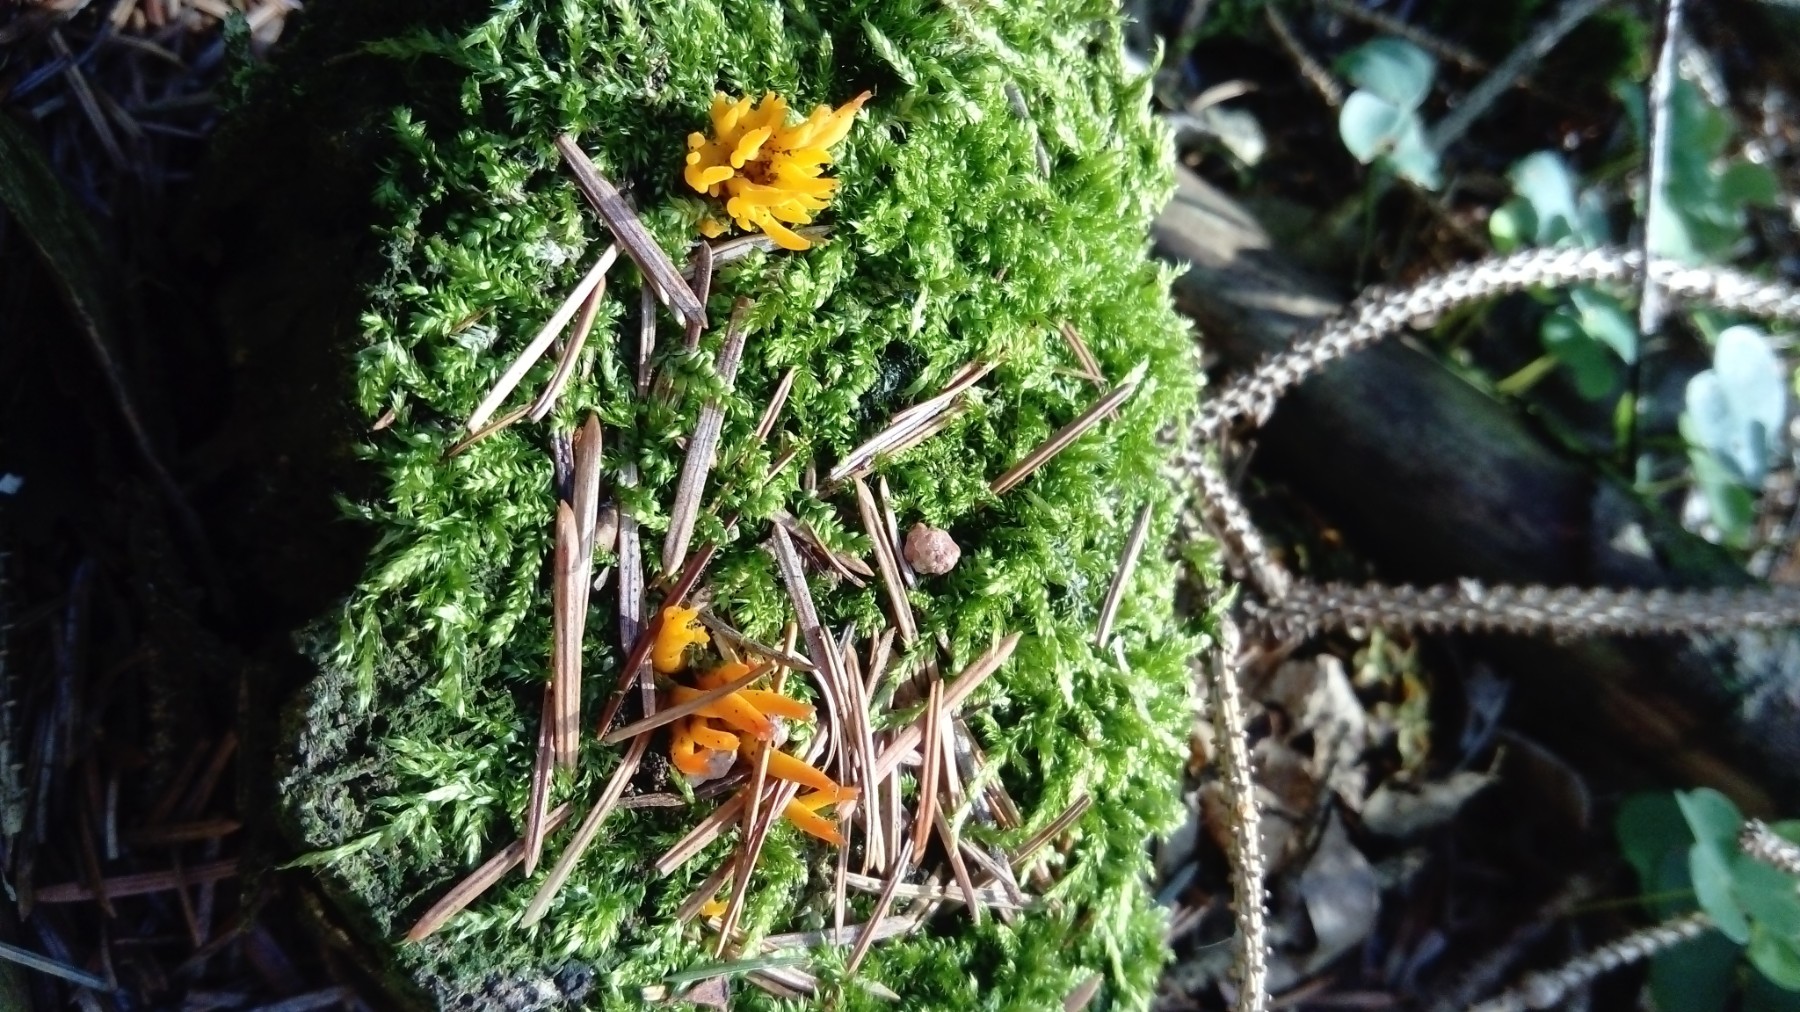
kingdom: Fungi
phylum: Basidiomycota
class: Dacrymycetes
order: Dacrymycetales
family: Dacrymycetaceae
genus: Calocera
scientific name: Calocera viscosa
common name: almindelig guldgaffel
